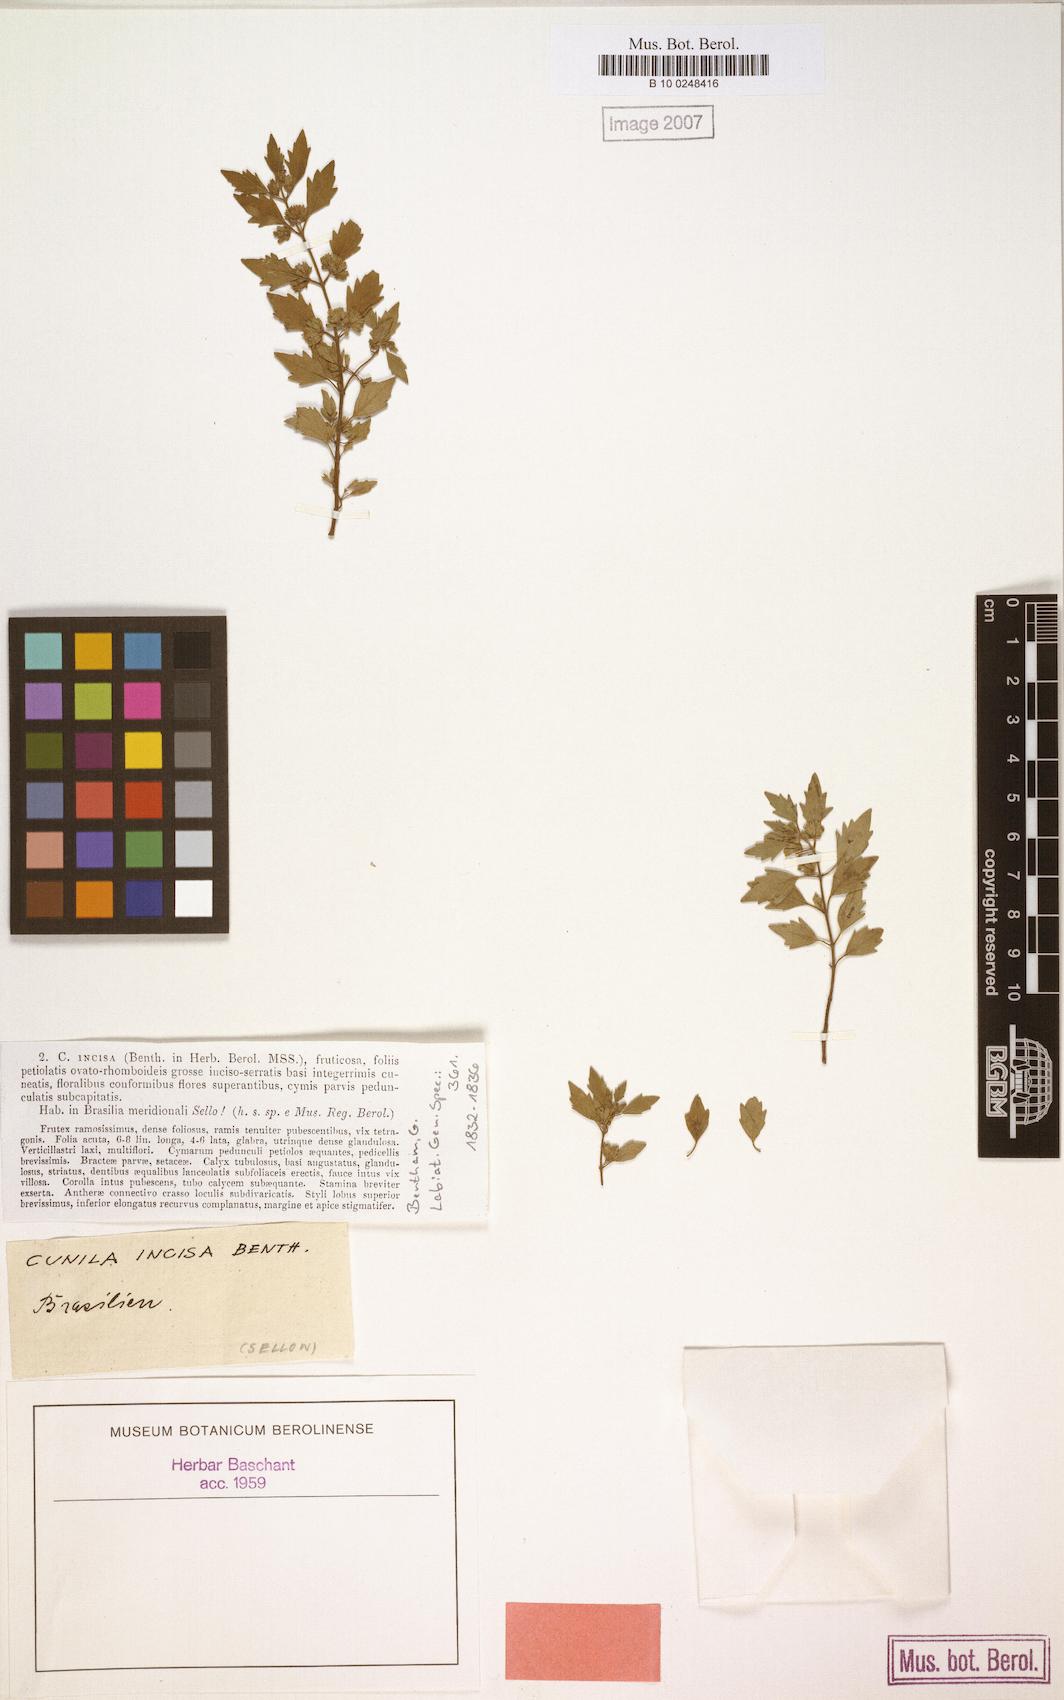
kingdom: Plantae
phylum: Tracheophyta
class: Magnoliopsida
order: Lamiales
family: Lamiaceae
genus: Cunila
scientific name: Cunila incisa
